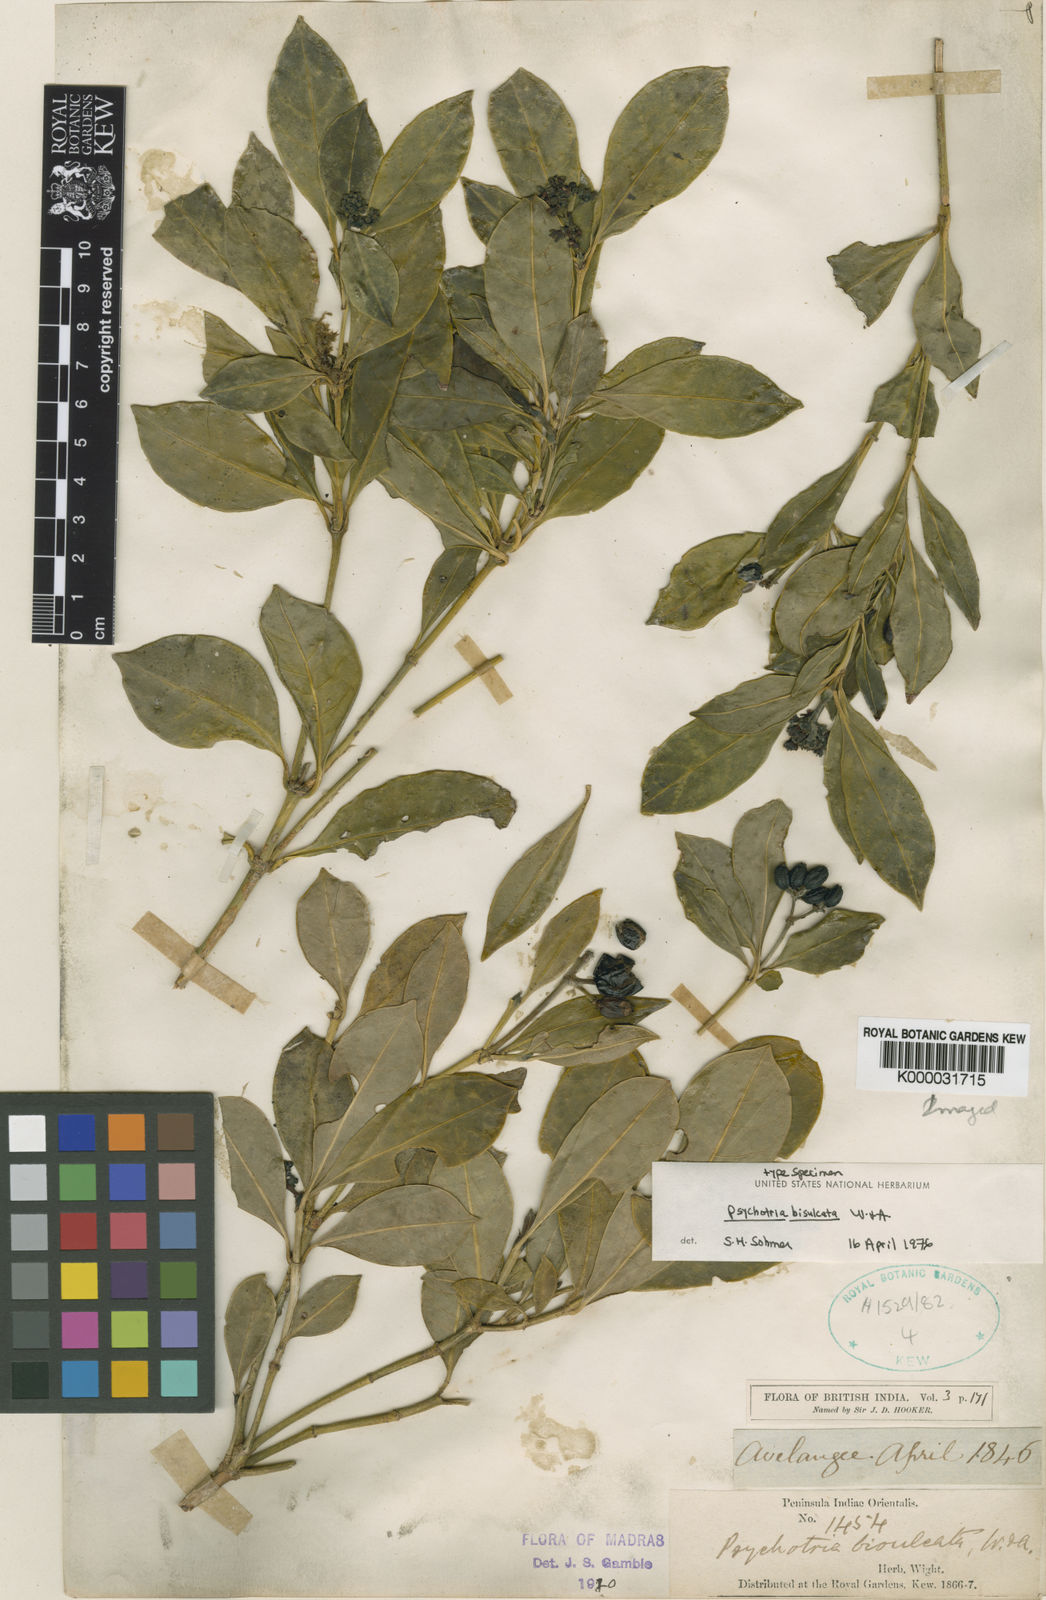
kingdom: Plantae
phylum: Tracheophyta
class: Magnoliopsida
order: Gentianales
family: Rubiaceae
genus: Psychotria
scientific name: Psychotria
